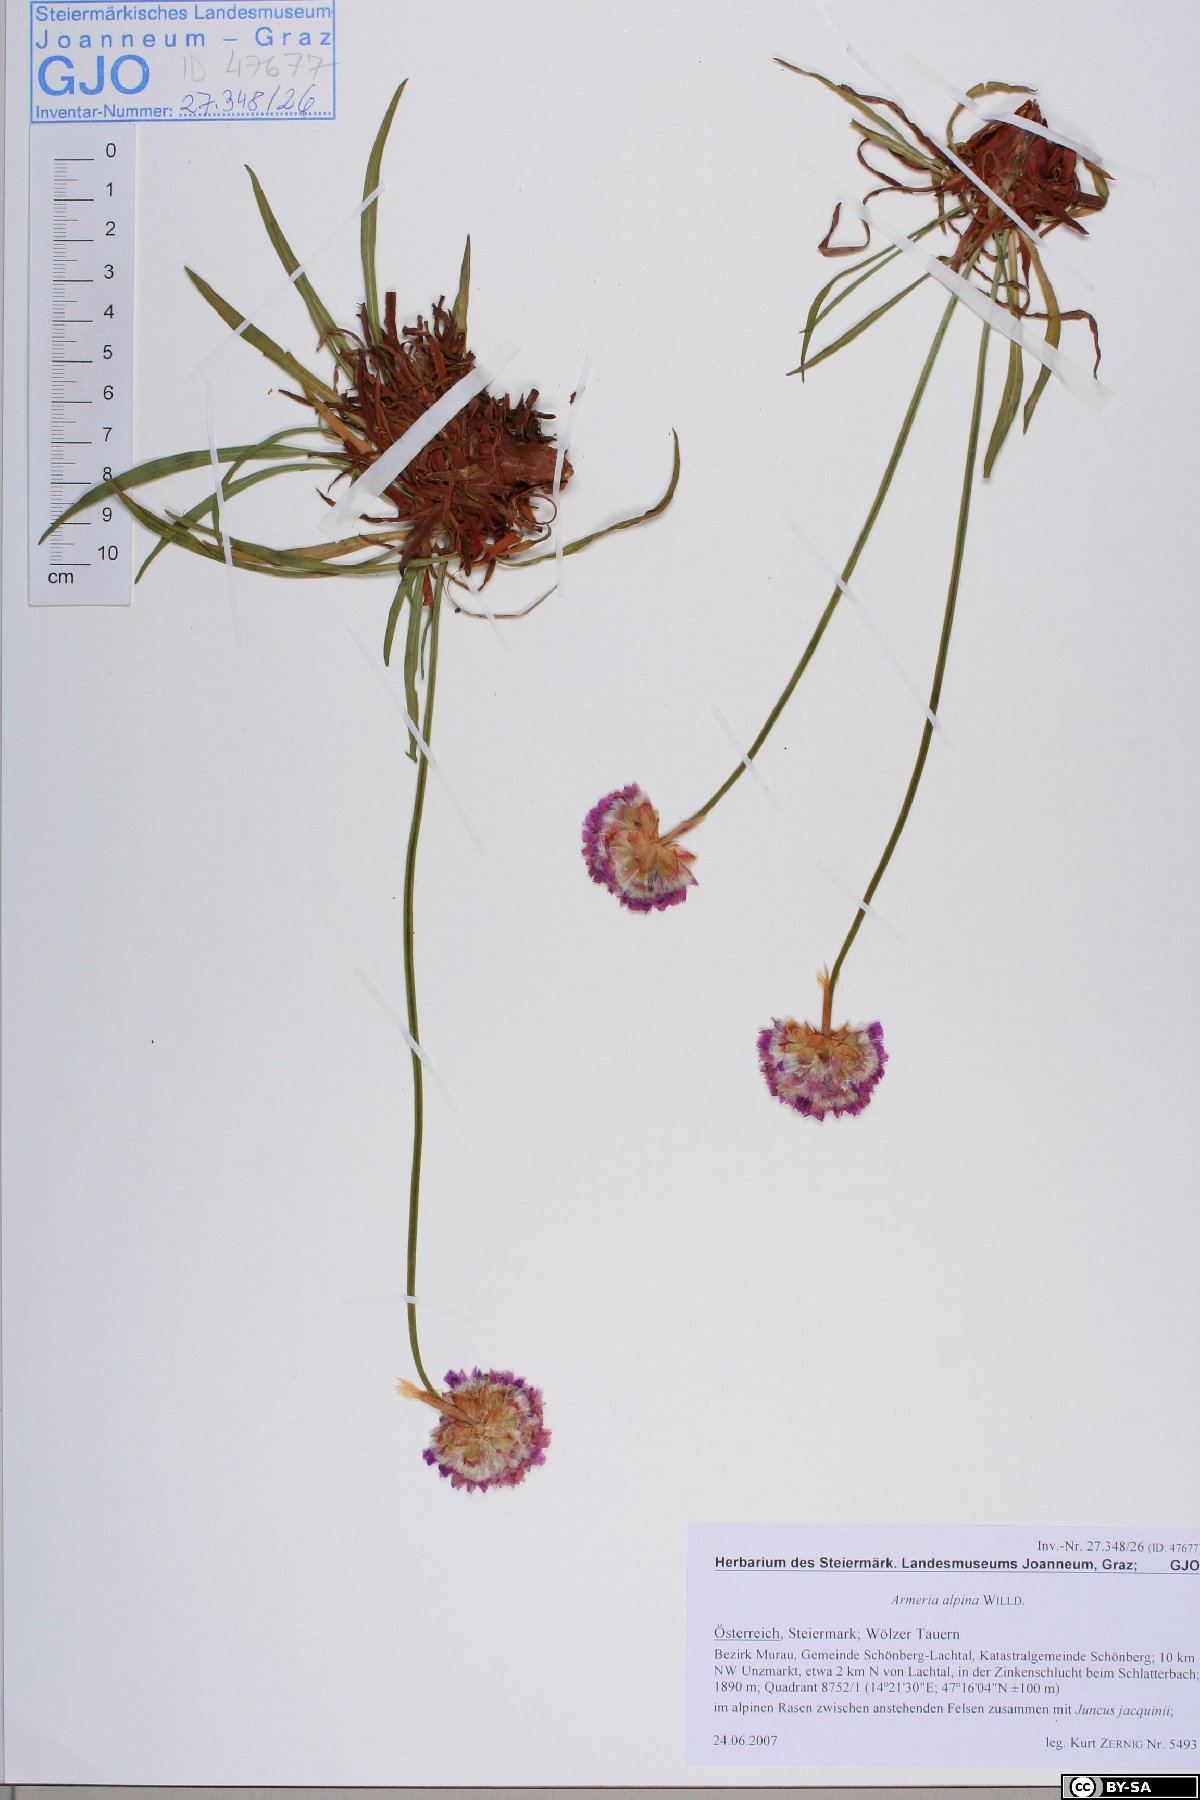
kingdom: Plantae
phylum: Tracheophyta
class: Magnoliopsida
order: Caryophyllales
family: Plumbaginaceae
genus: Armeria
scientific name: Armeria alpina
